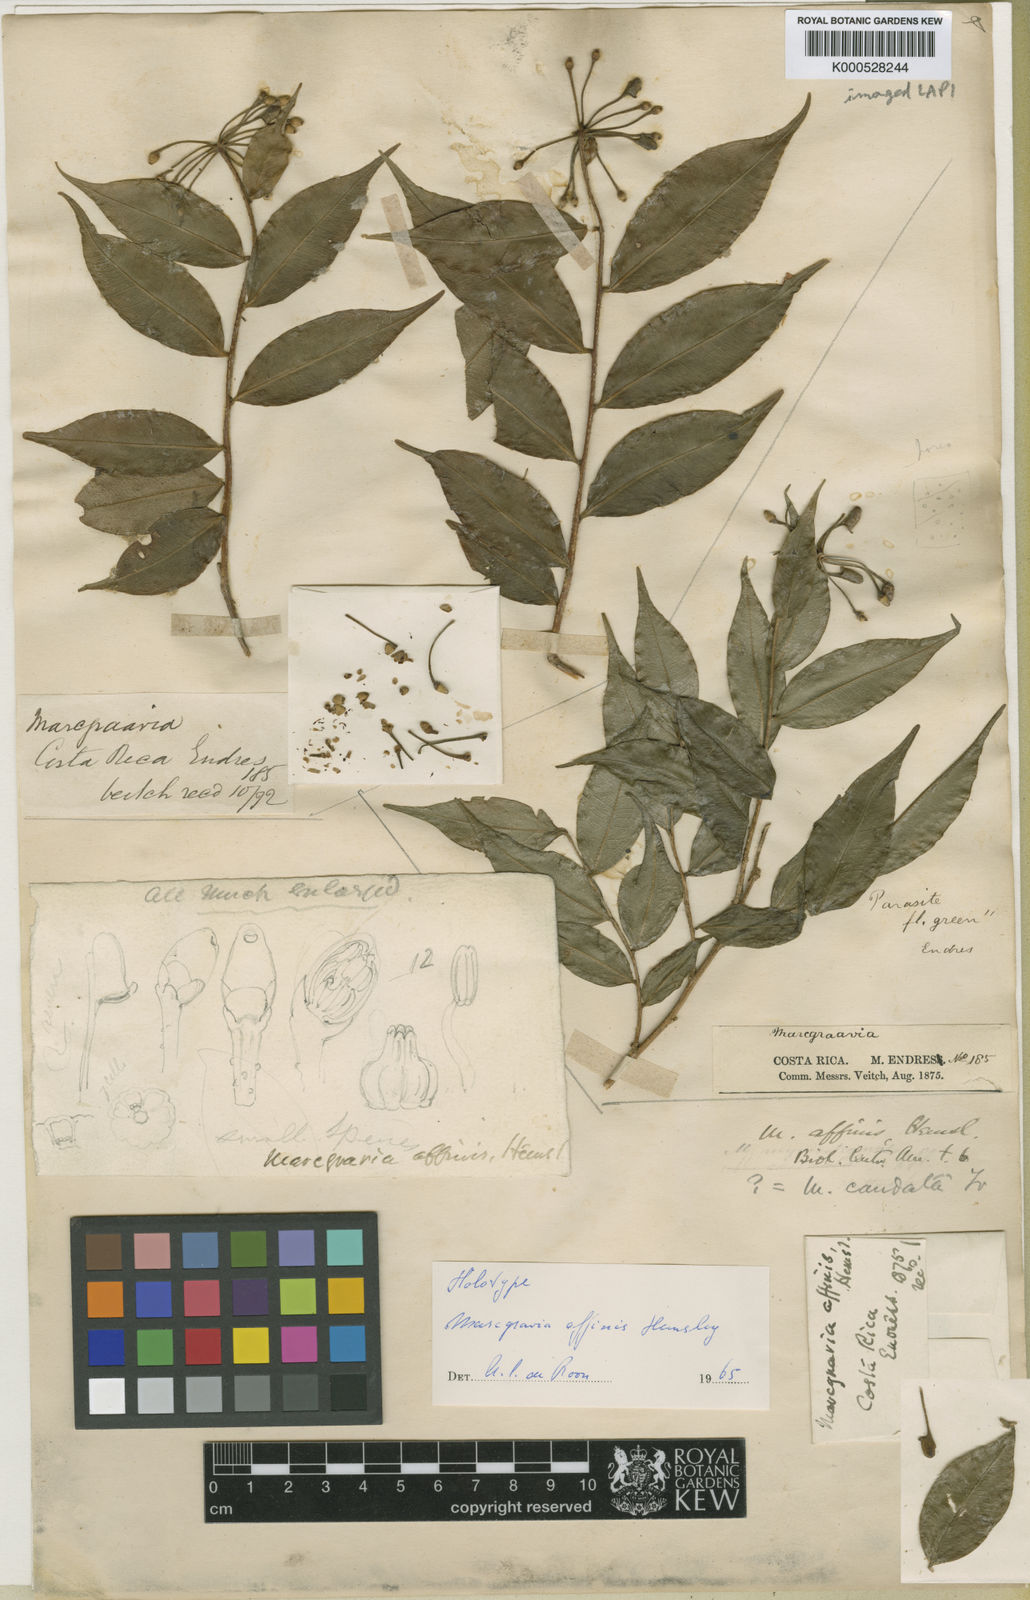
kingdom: Plantae
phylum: Tracheophyta
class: Magnoliopsida
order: Ericales
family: Marcgraviaceae
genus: Marcgravia
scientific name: Marcgravia caudata
